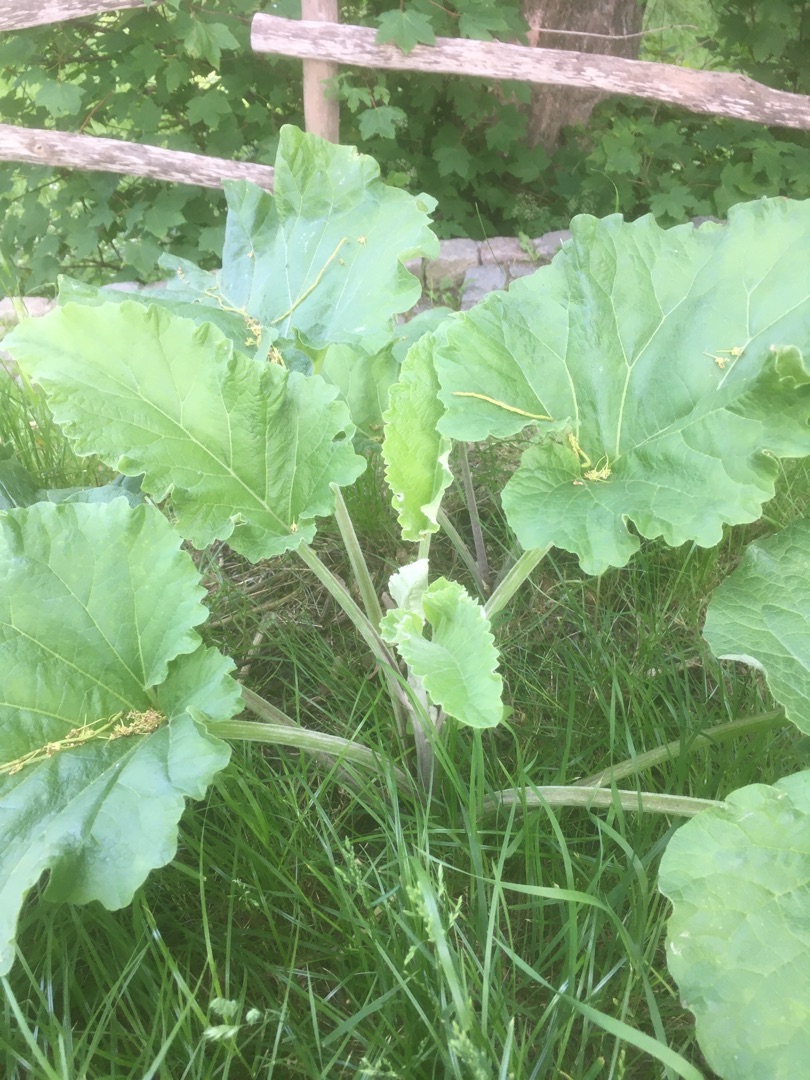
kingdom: Plantae
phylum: Tracheophyta
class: Magnoliopsida
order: Asterales
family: Asteraceae
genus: Arctium
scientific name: Arctium
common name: Burreslægten
